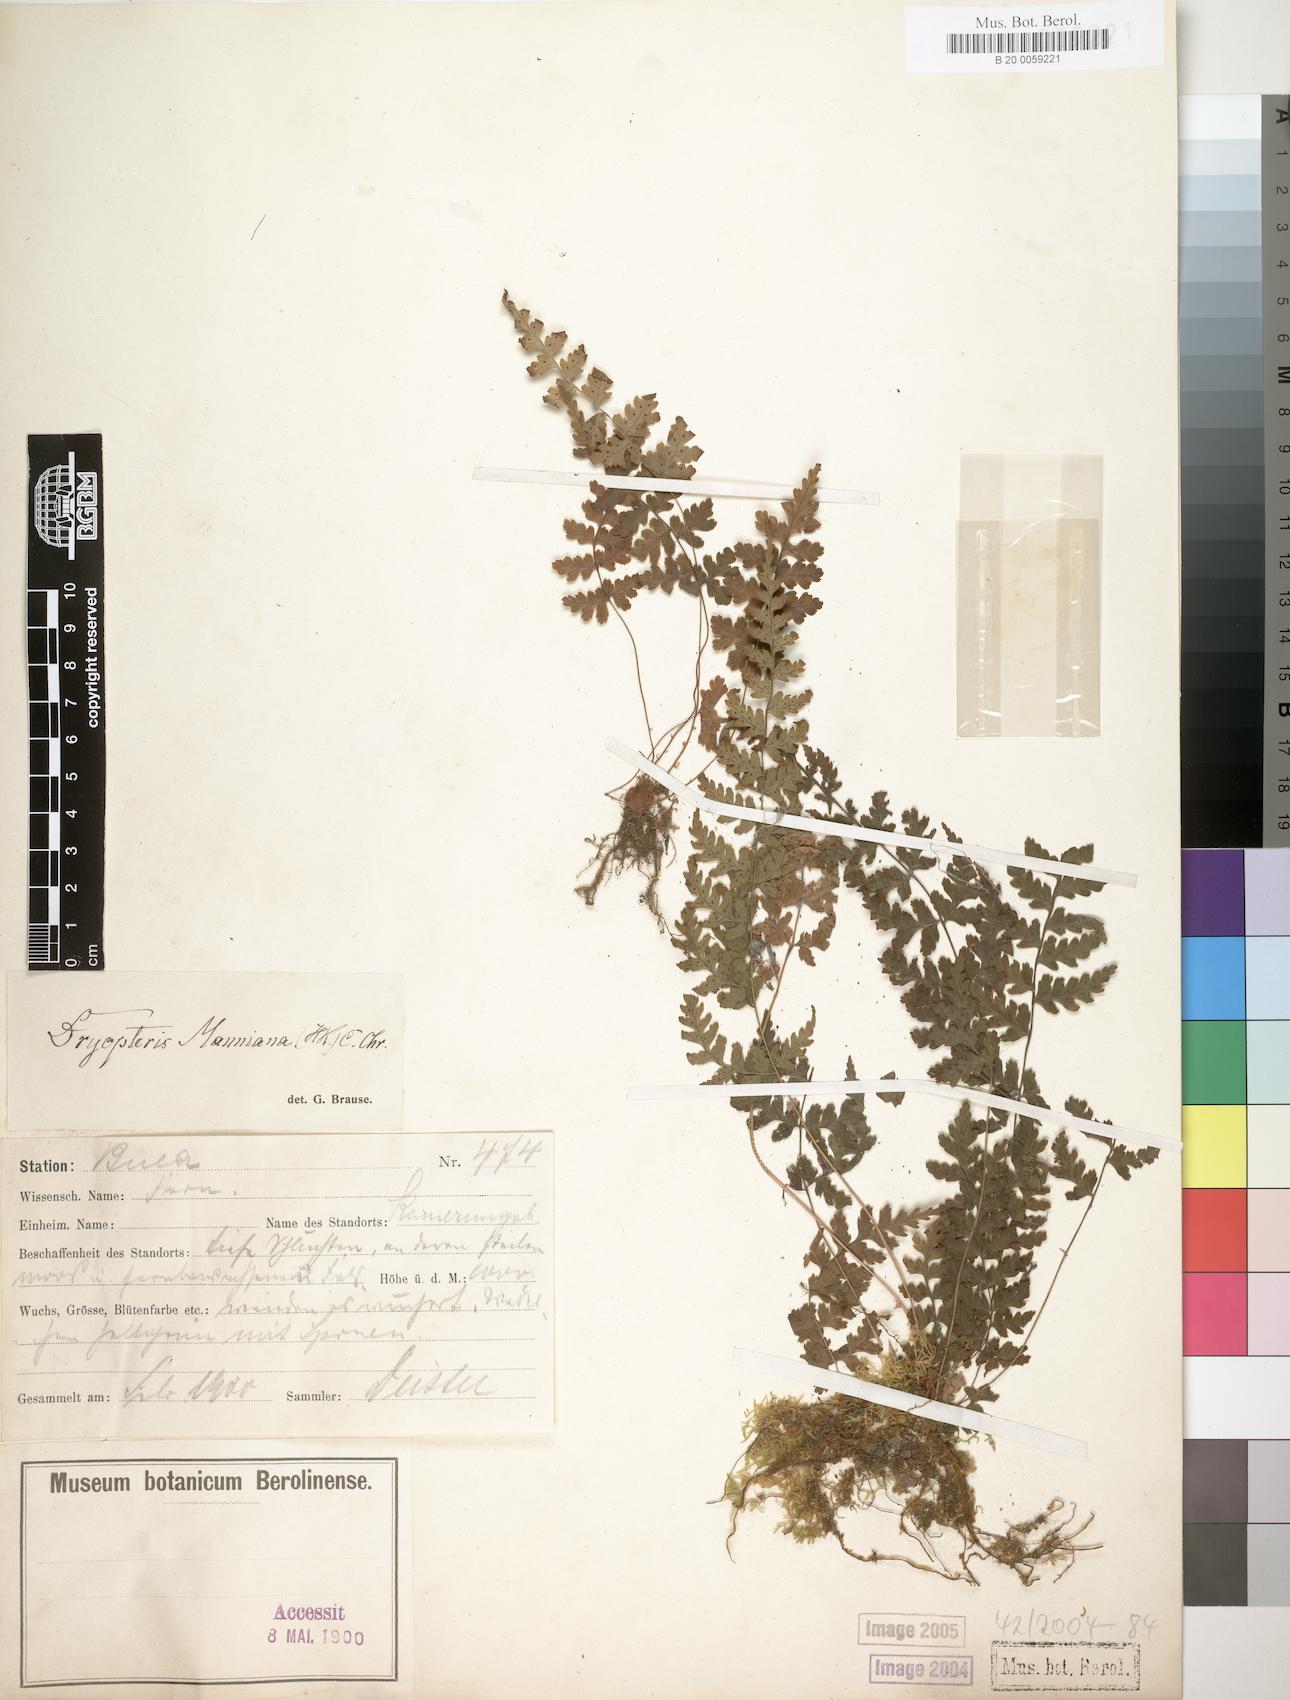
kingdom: Plantae
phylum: Tracheophyta
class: Polypodiopsida
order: Polypodiales
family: Dryopteridaceae
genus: Dryopteris
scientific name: Dryopteris manniana
